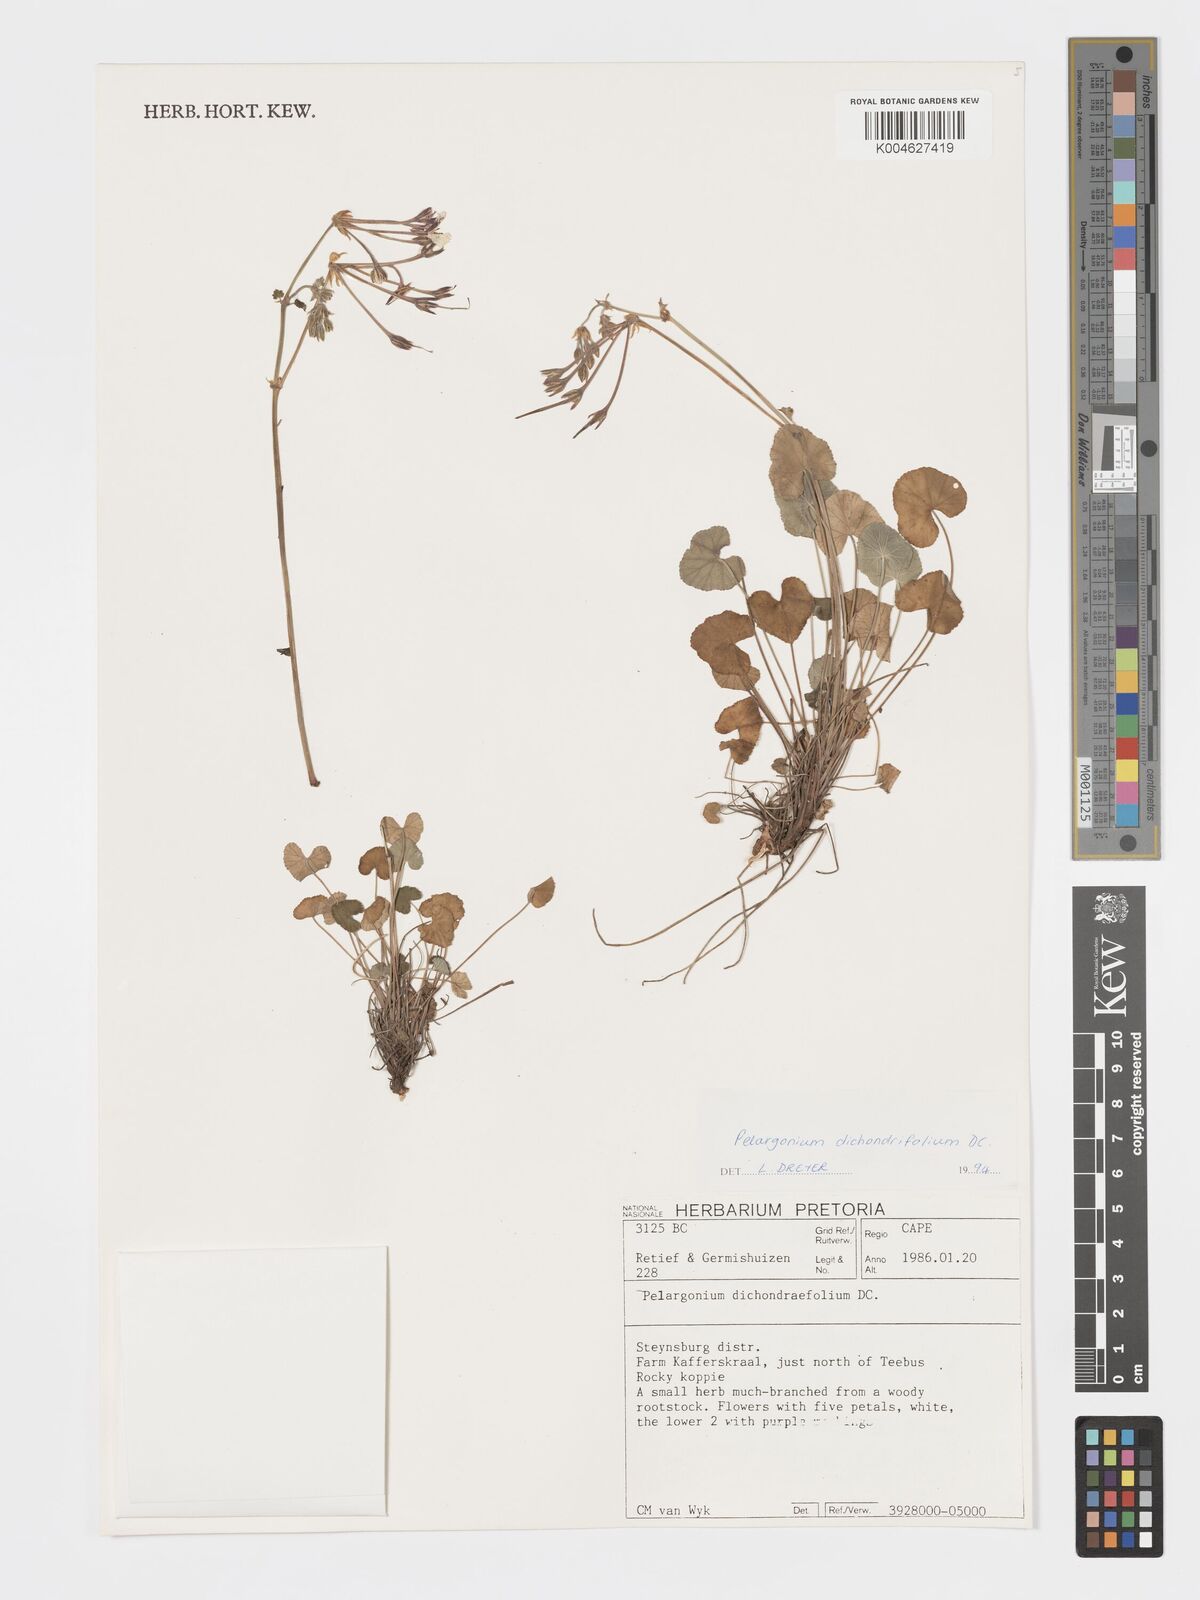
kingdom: Plantae
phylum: Tracheophyta
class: Magnoliopsida
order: Geraniales
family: Geraniaceae
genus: Pelargonium
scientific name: Pelargonium dichondrifolium
